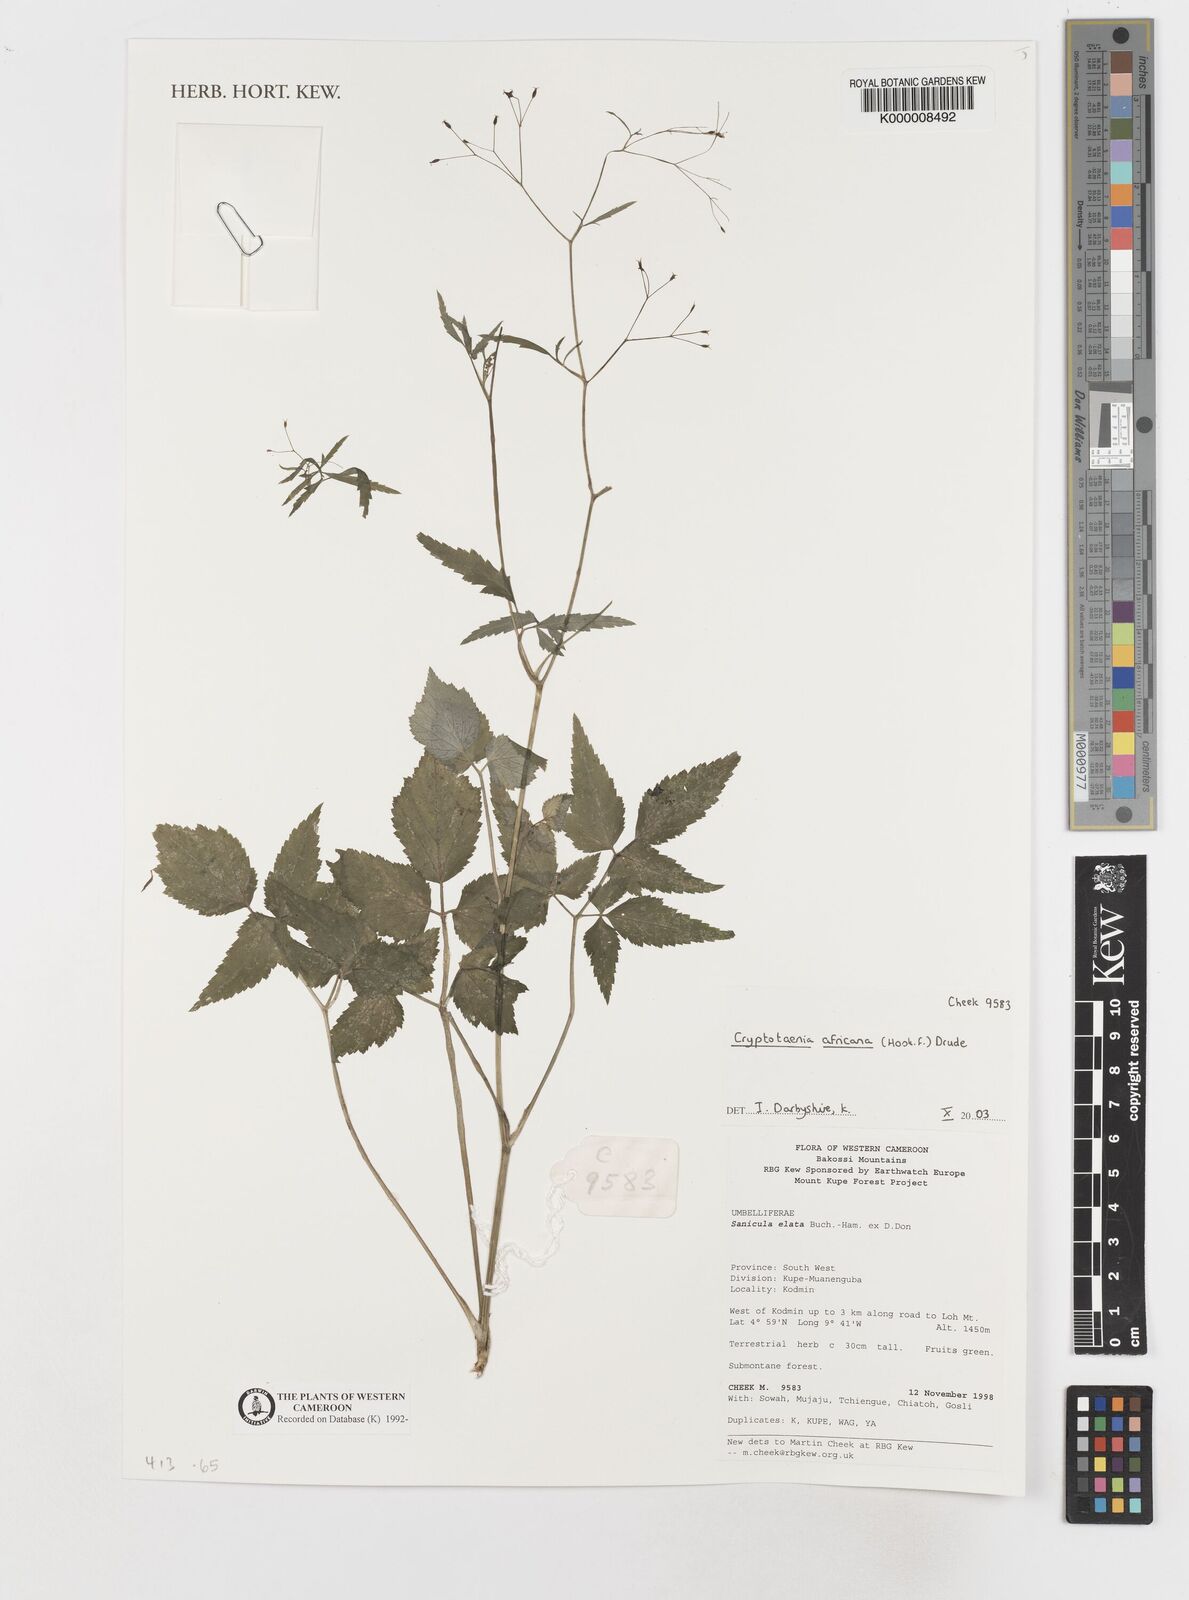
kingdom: Plantae
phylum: Tracheophyta
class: Magnoliopsida
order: Apiales
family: Apiaceae
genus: Cryptotaenia
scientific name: Cryptotaenia africana
